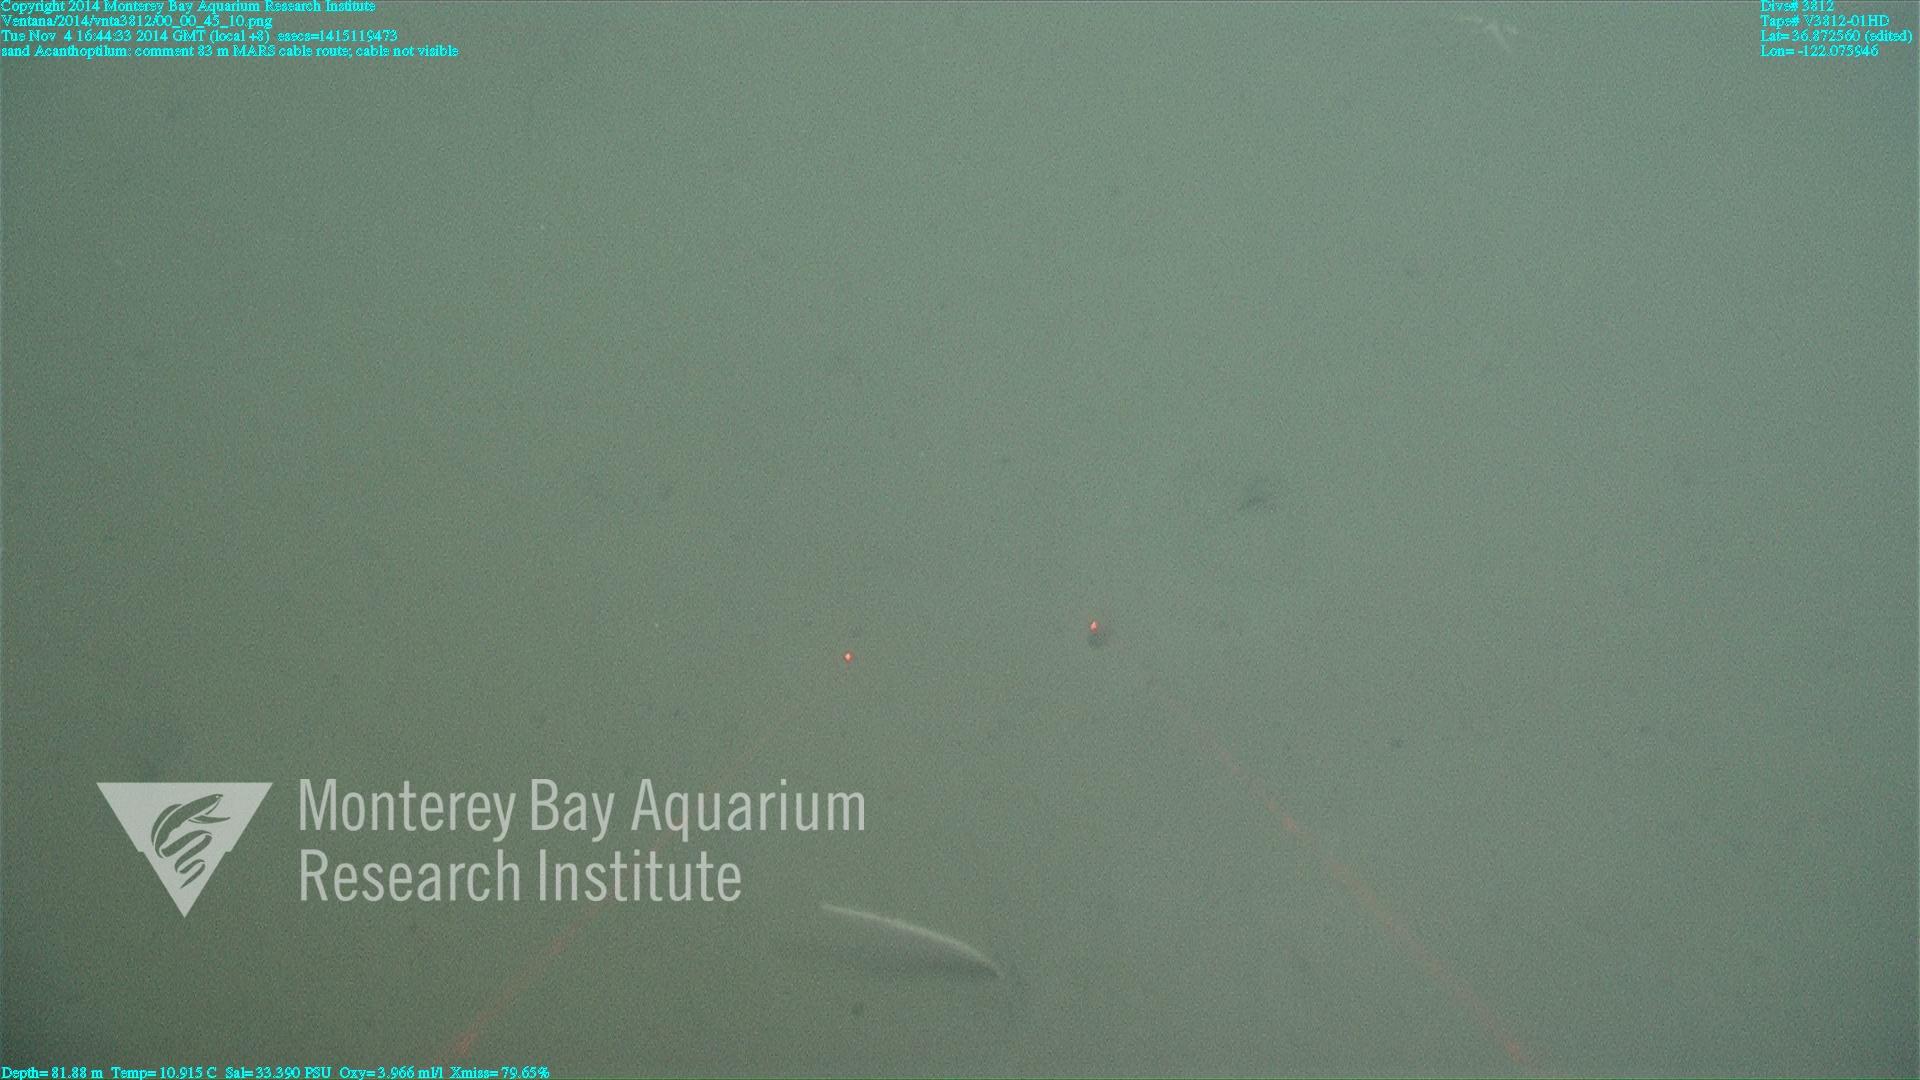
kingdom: Animalia
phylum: Cnidaria
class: Anthozoa
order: Scleralcyonacea
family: Virgulariidae
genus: Acanthoptilum
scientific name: Acanthoptilum
